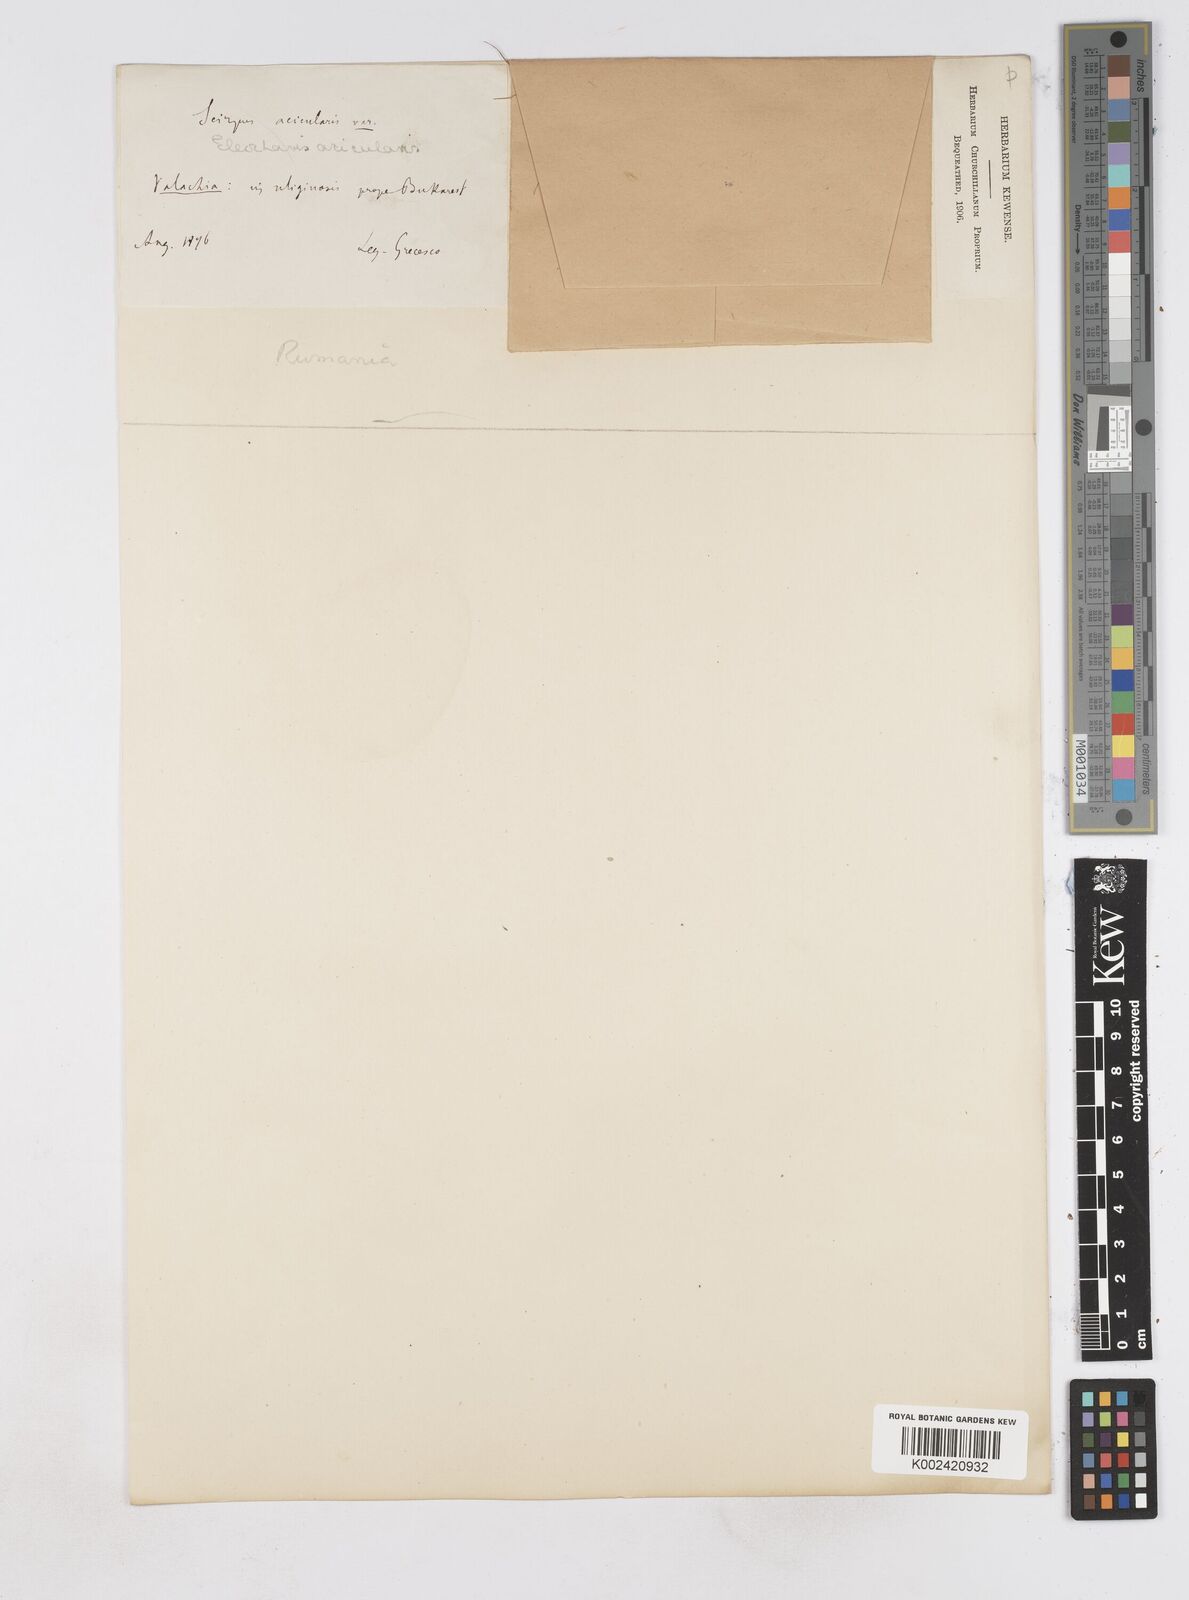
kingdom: Plantae
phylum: Tracheophyta
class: Liliopsida
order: Poales
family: Cyperaceae
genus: Eleocharis
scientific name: Eleocharis acicularis
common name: Needle spike-rush
